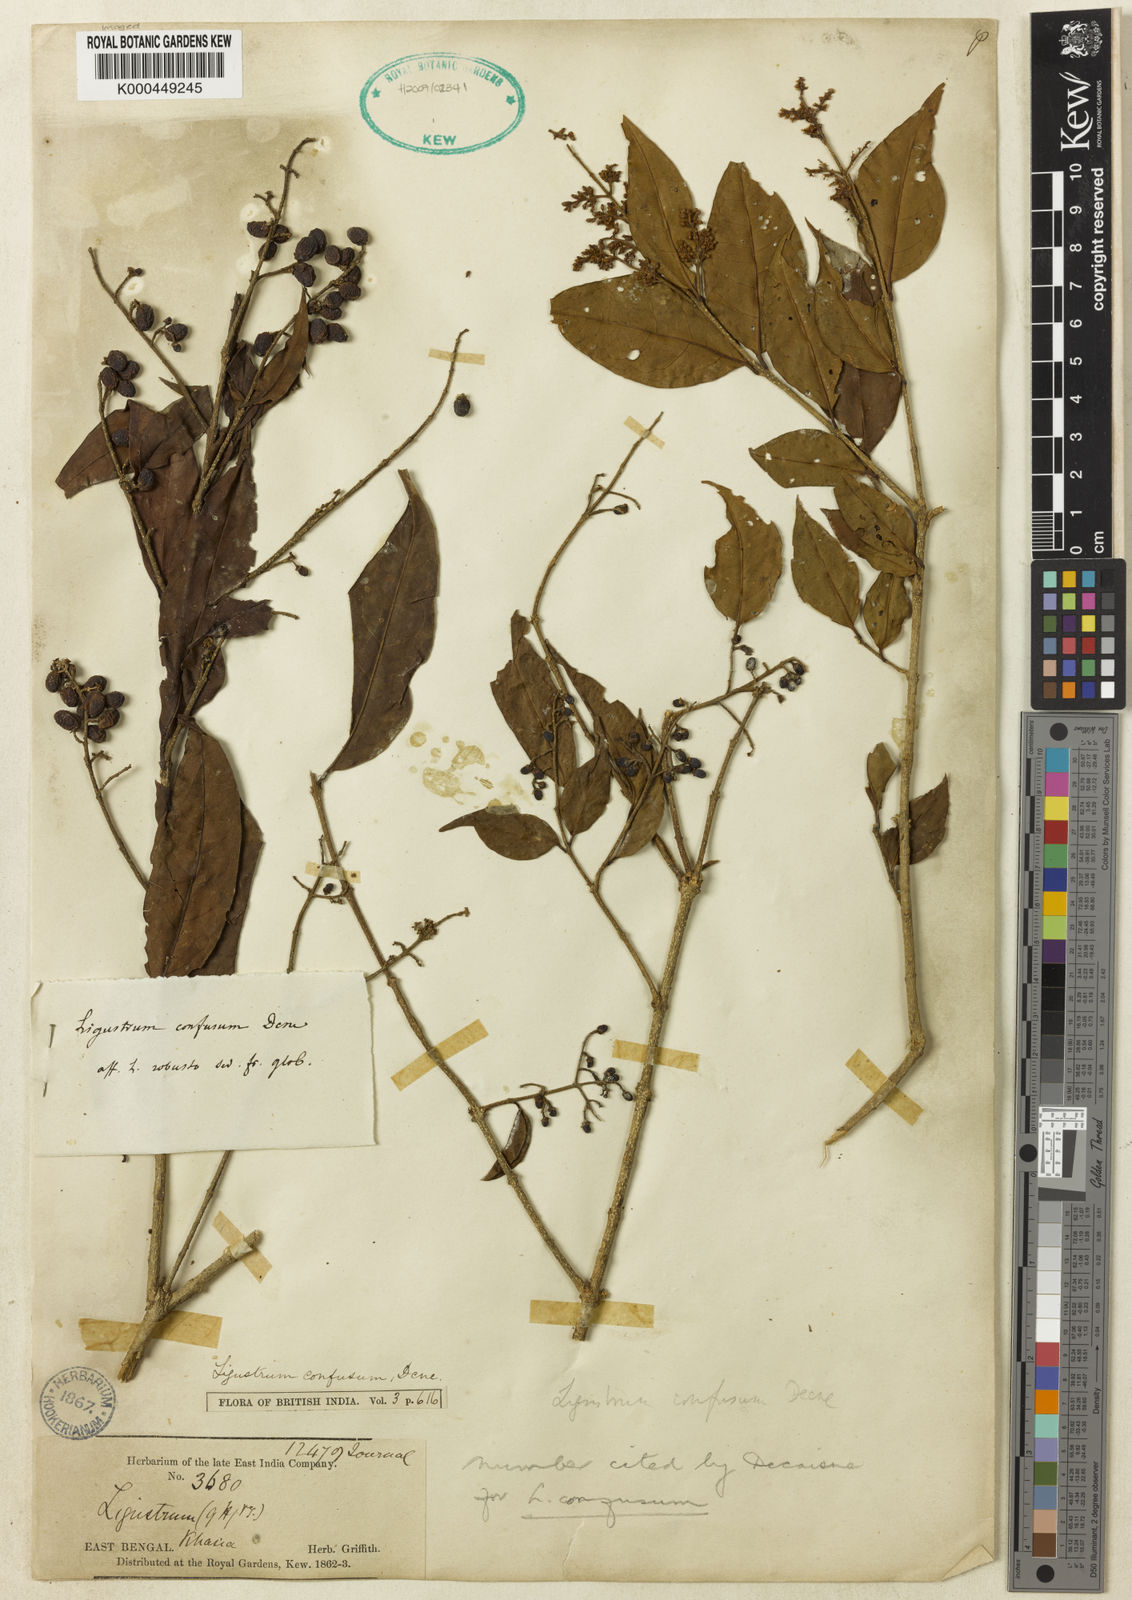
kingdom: Plantae
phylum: Tracheophyta
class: Magnoliopsida
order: Lamiales
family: Oleaceae
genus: Ligustrum
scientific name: Ligustrum confusum
